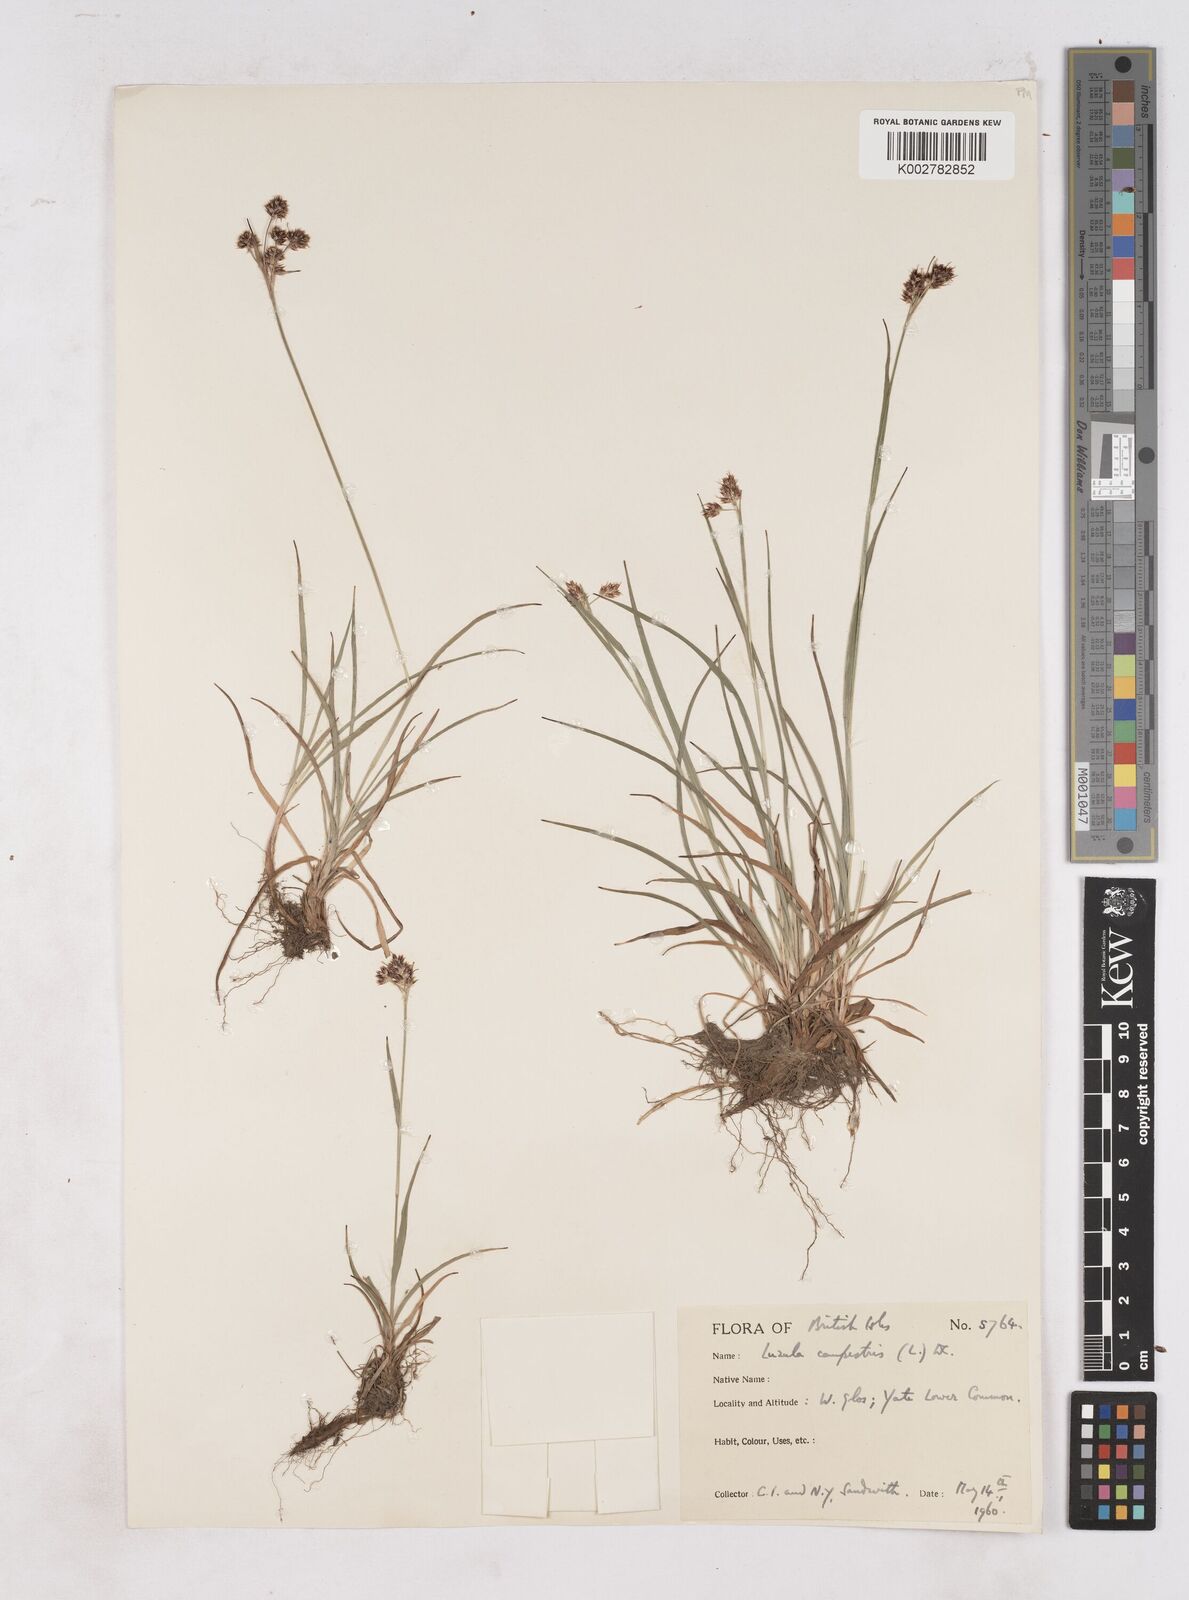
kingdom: Plantae
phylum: Tracheophyta
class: Liliopsida
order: Poales
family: Juncaceae
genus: Luzula
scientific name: Luzula campestris
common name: Field wood-rush
